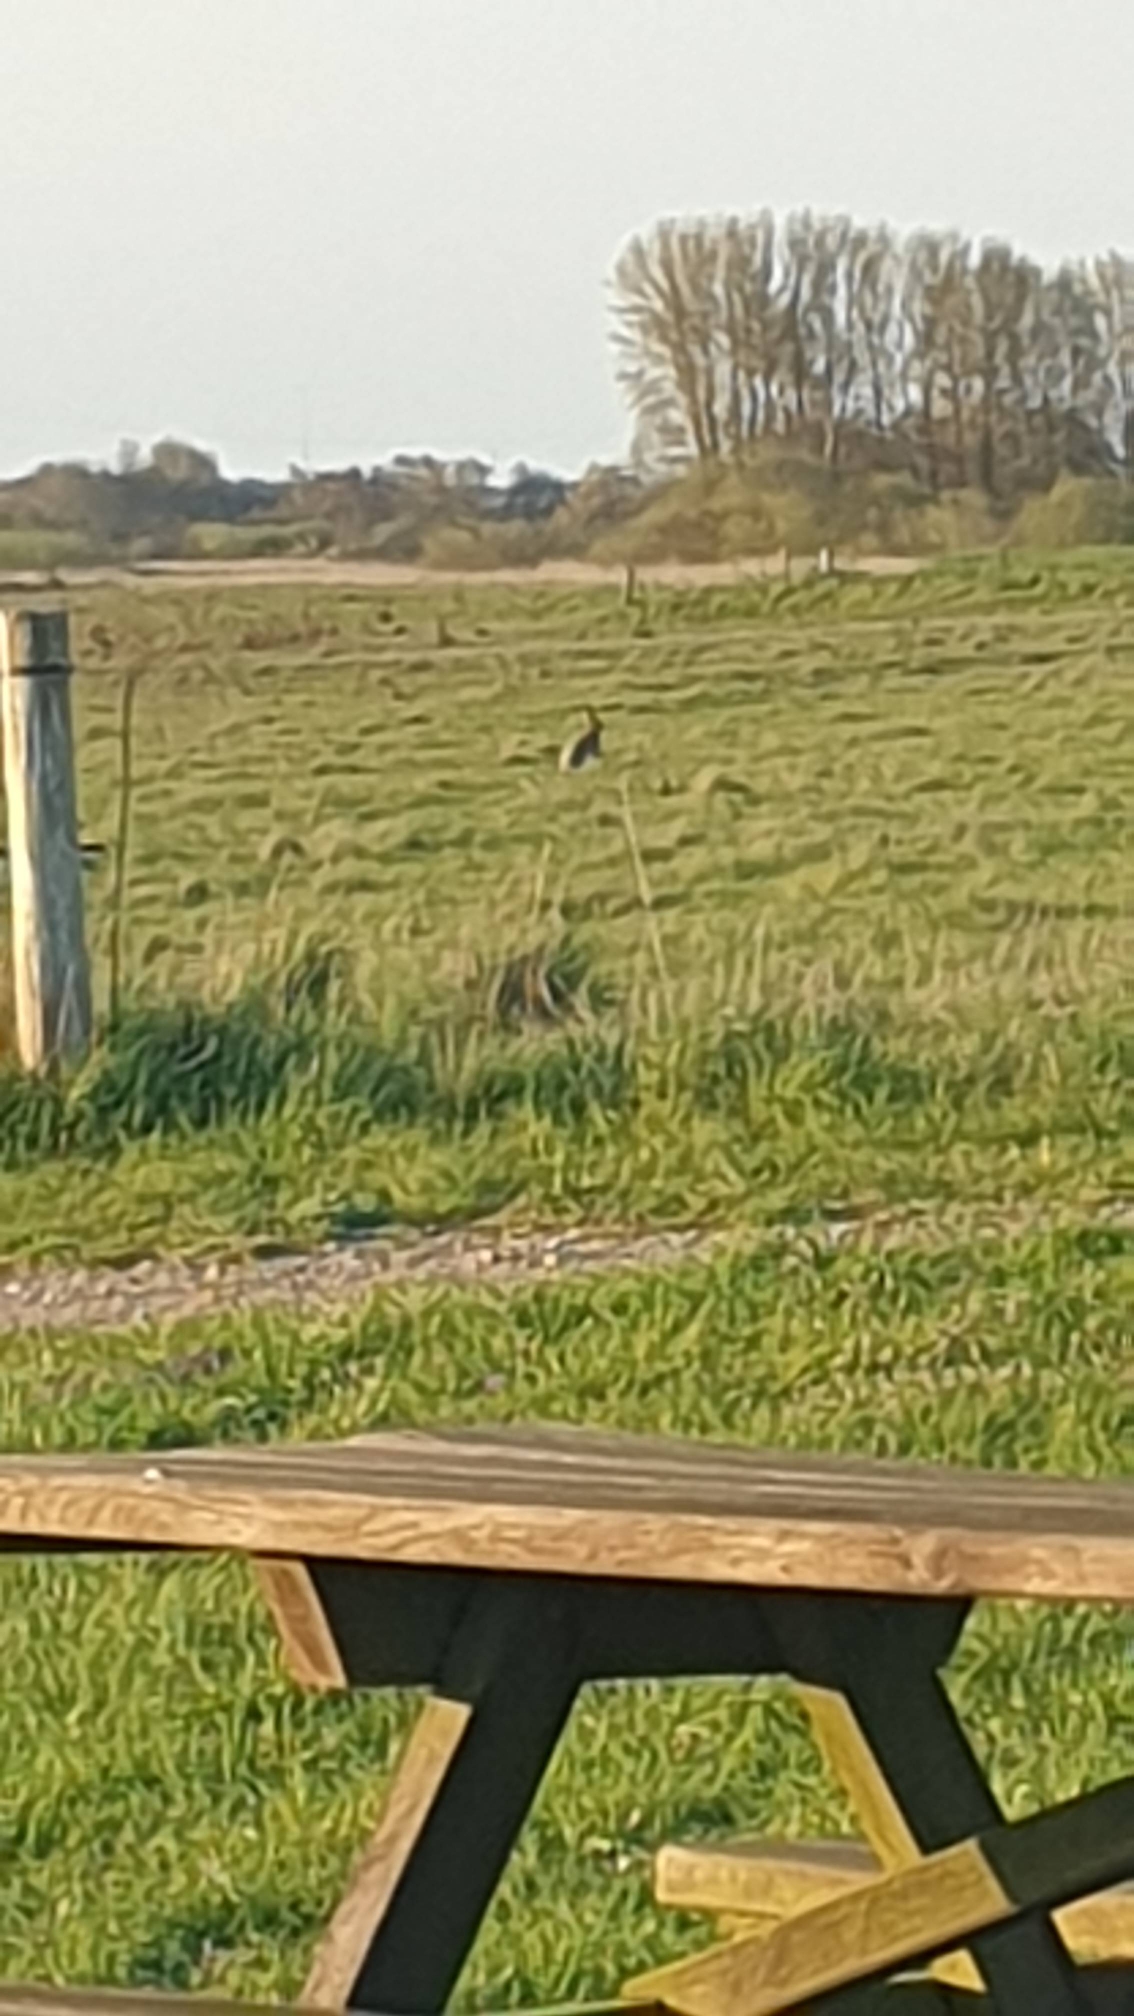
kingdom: Animalia
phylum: Chordata
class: Mammalia
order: Lagomorpha
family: Leporidae
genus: Lepus
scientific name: Lepus europaeus
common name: Hare
